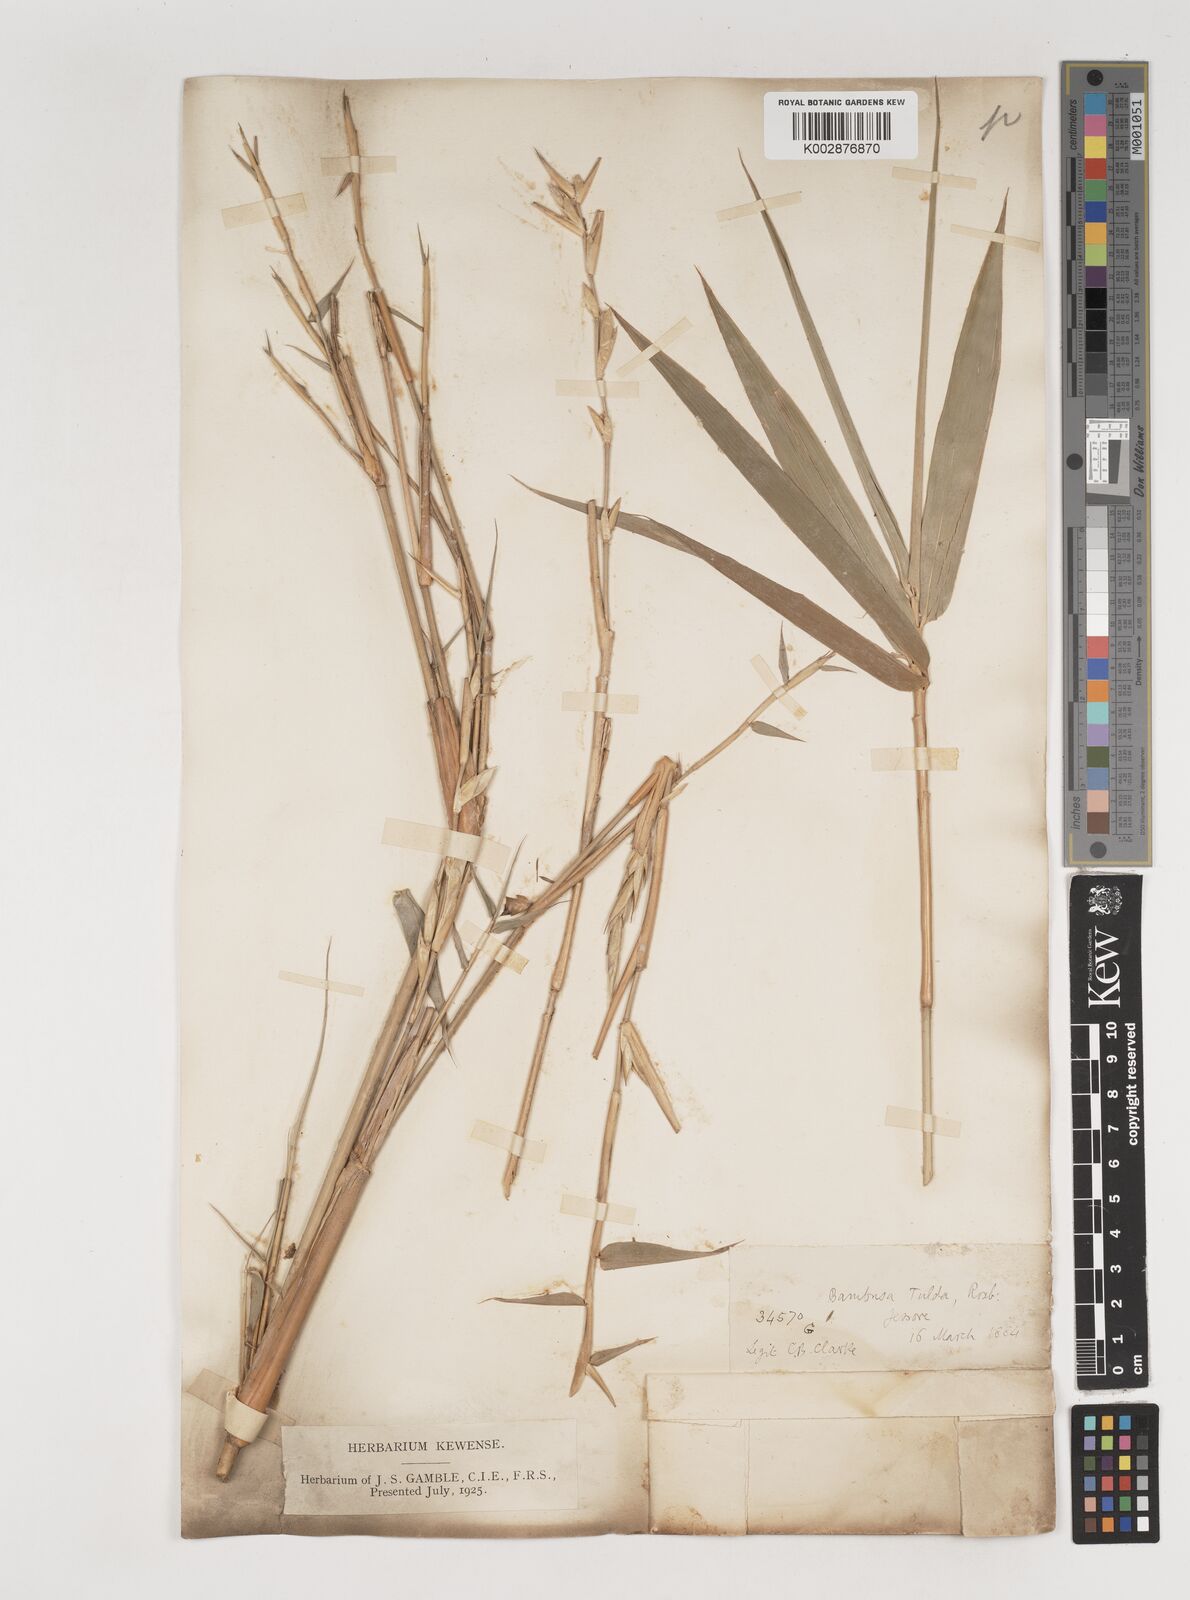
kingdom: Plantae
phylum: Tracheophyta
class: Liliopsida
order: Poales
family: Poaceae
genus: Bambusa
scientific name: Bambusa tuldoides
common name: Verdant bamboo
